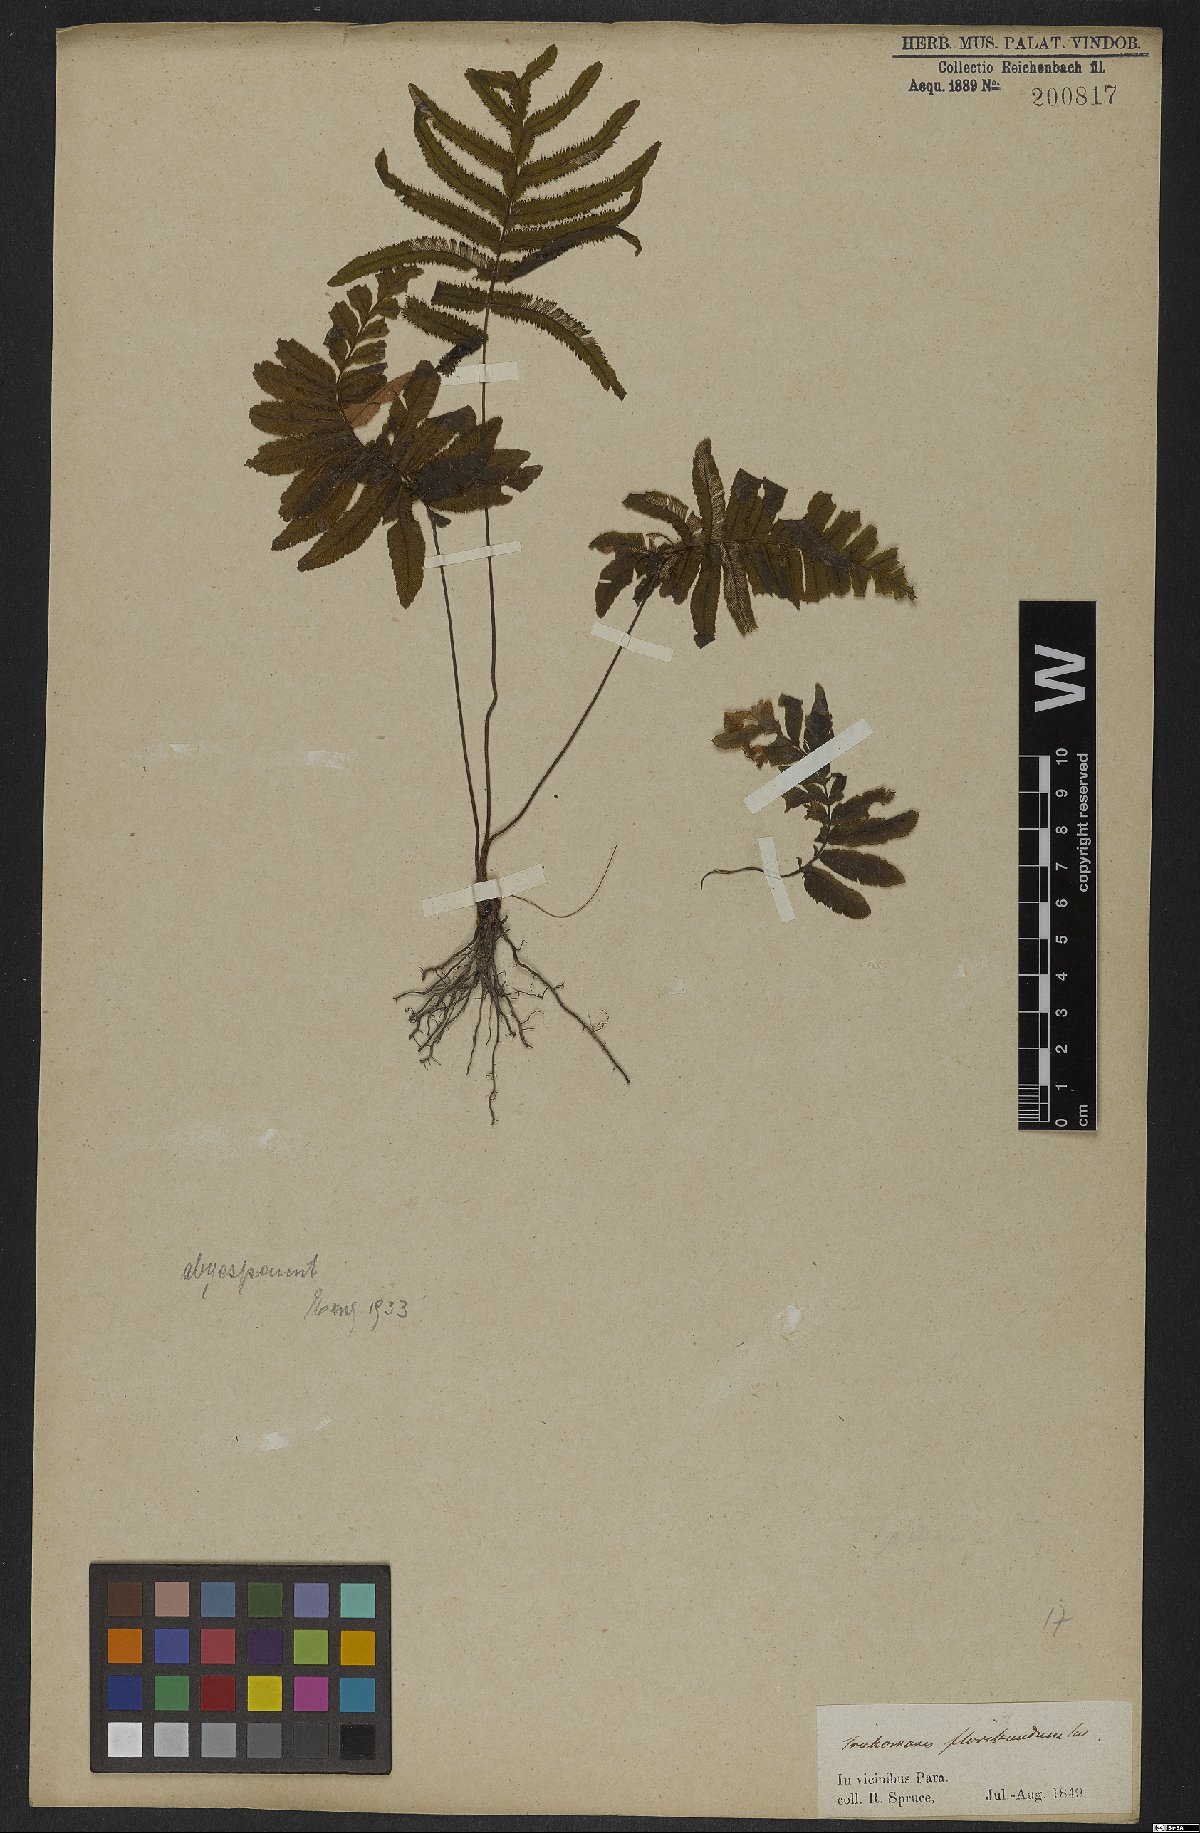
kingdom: Plantae
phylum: Tracheophyta
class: Polypodiopsida
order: Hymenophyllales
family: Hymenophyllaceae
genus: Trichomanes
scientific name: Trichomanes pinnatum
